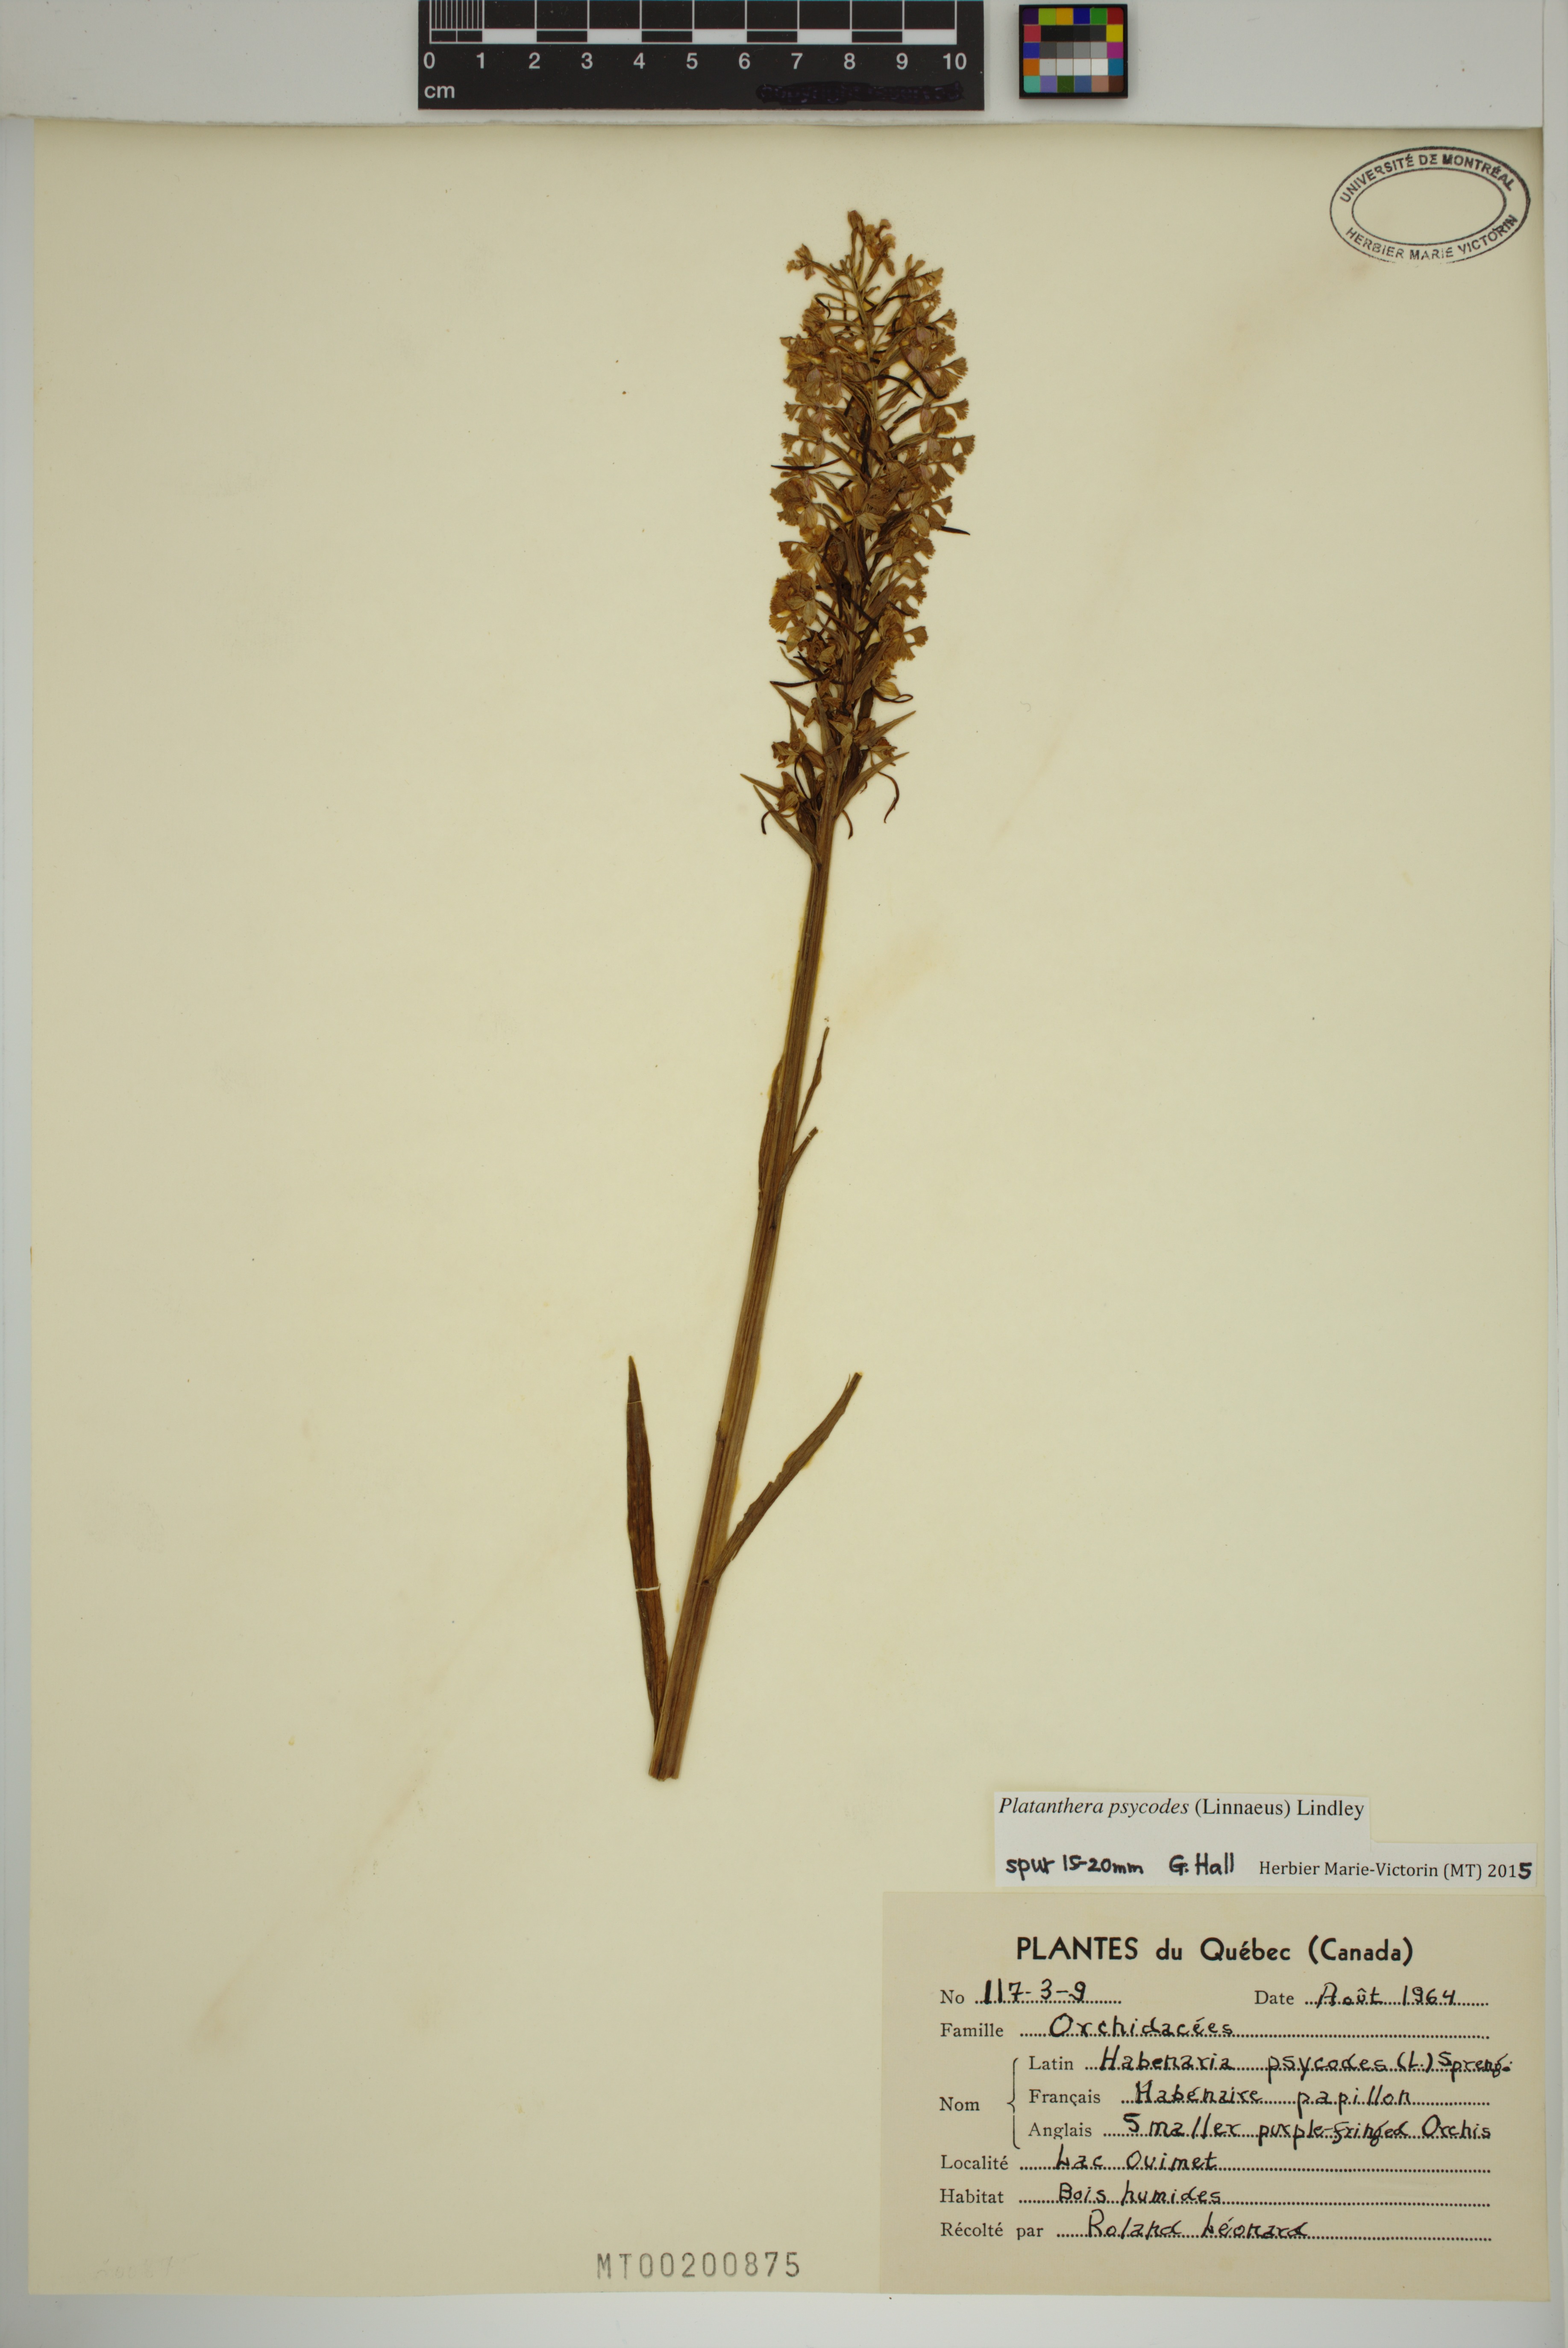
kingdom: Plantae
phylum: Tracheophyta
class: Liliopsida
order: Asparagales
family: Orchidaceae
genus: Platanthera
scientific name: Platanthera psycodes
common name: Lesser purple fringed orchid
